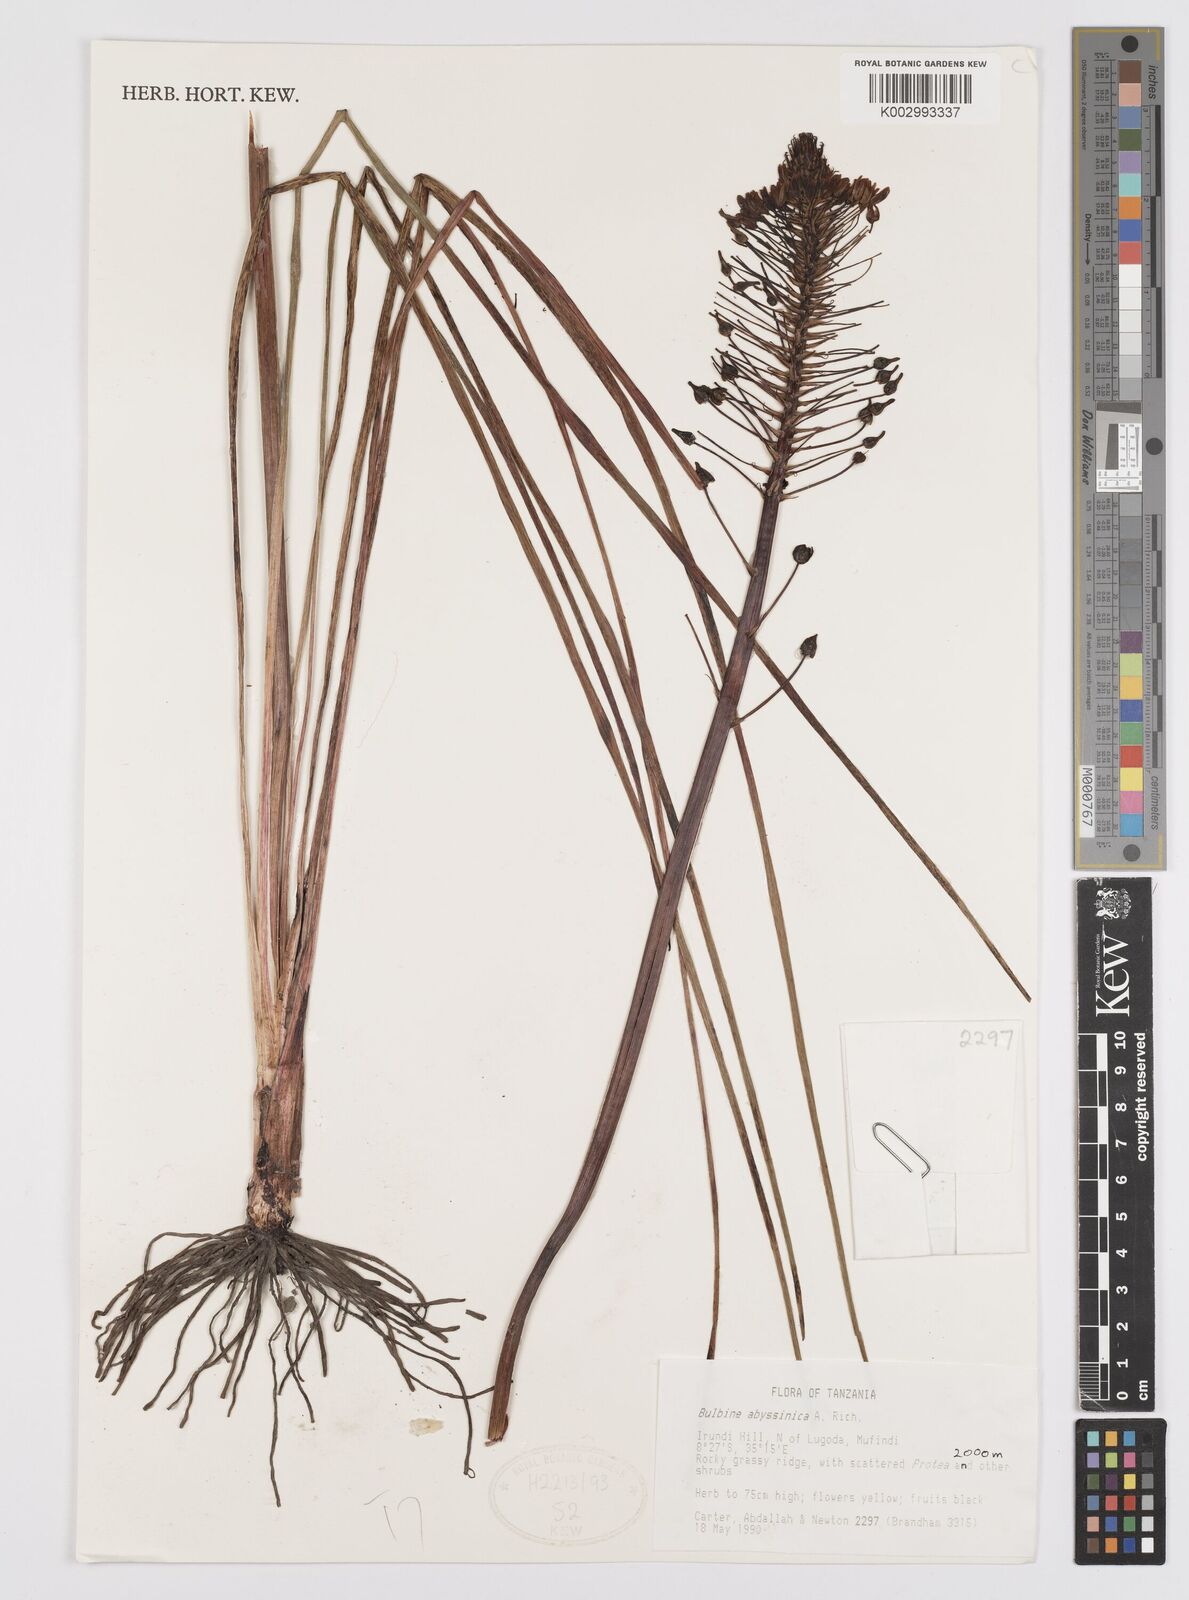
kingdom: Plantae
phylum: Tracheophyta
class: Liliopsida
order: Asparagales
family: Asphodelaceae
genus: Bulbine
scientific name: Bulbine abyssinica
